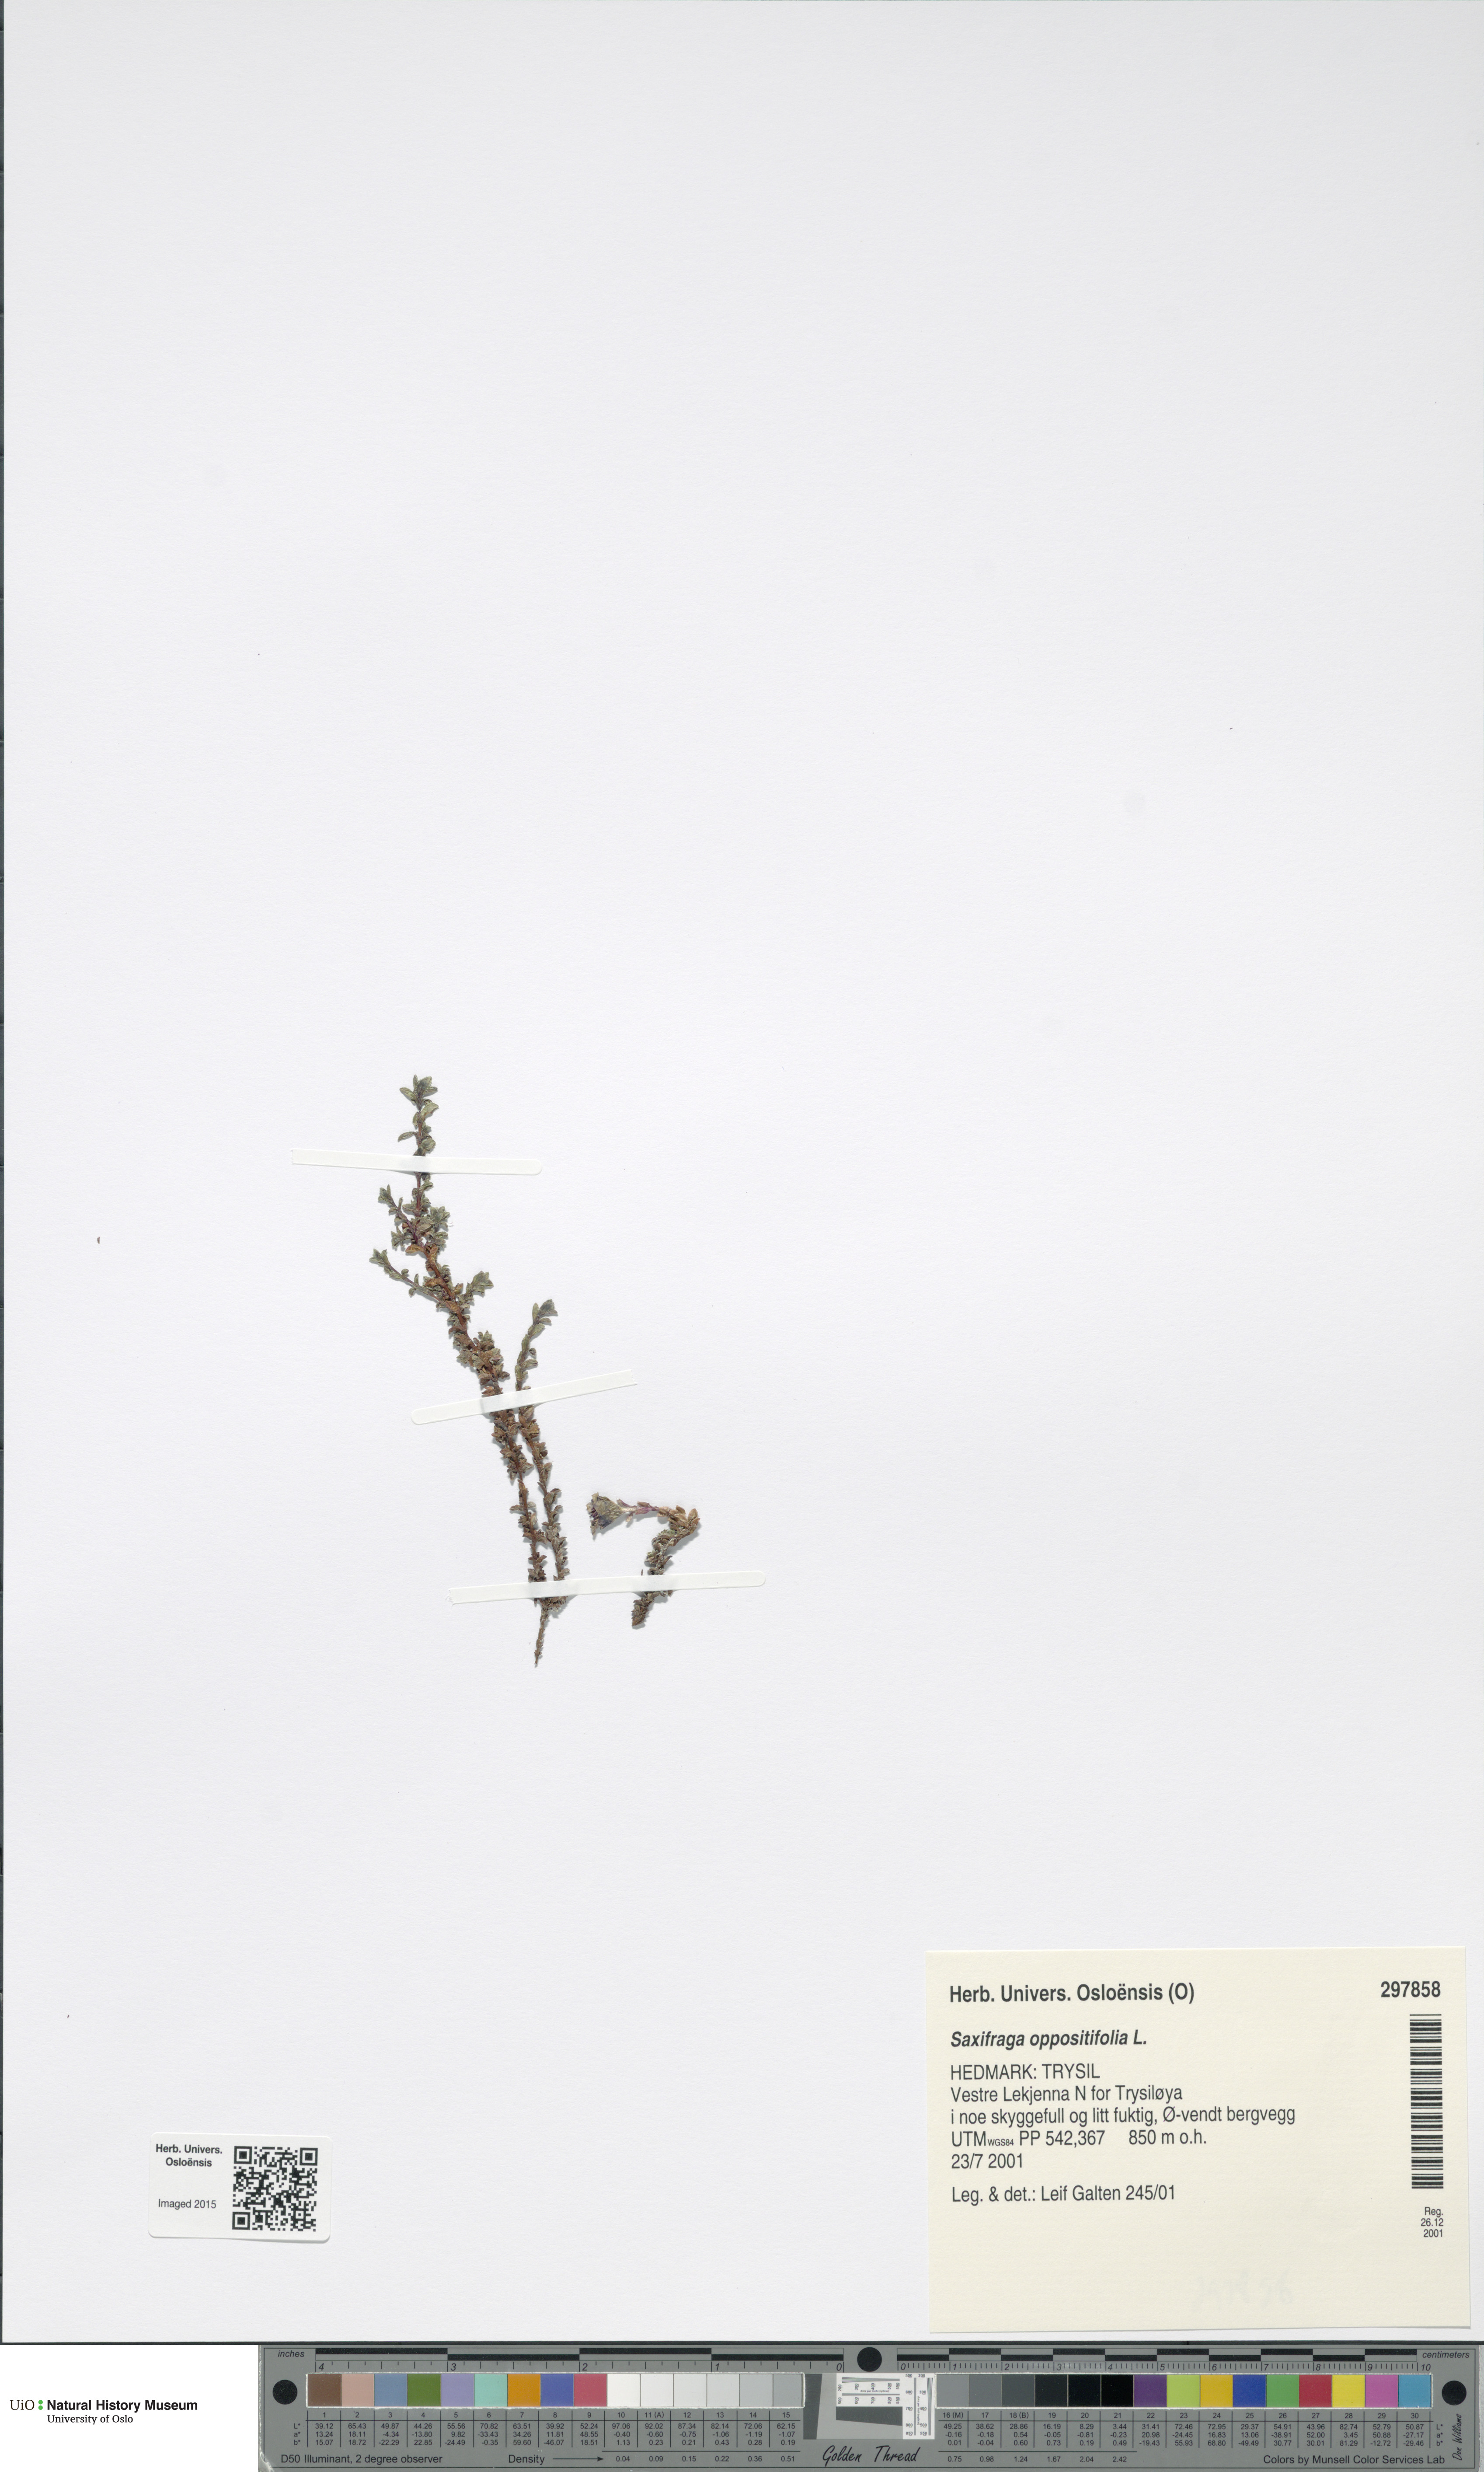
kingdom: Plantae
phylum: Tracheophyta
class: Magnoliopsida
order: Saxifragales
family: Saxifragaceae
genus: Saxifraga
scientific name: Saxifraga oppositifolia
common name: Purple saxifrage
